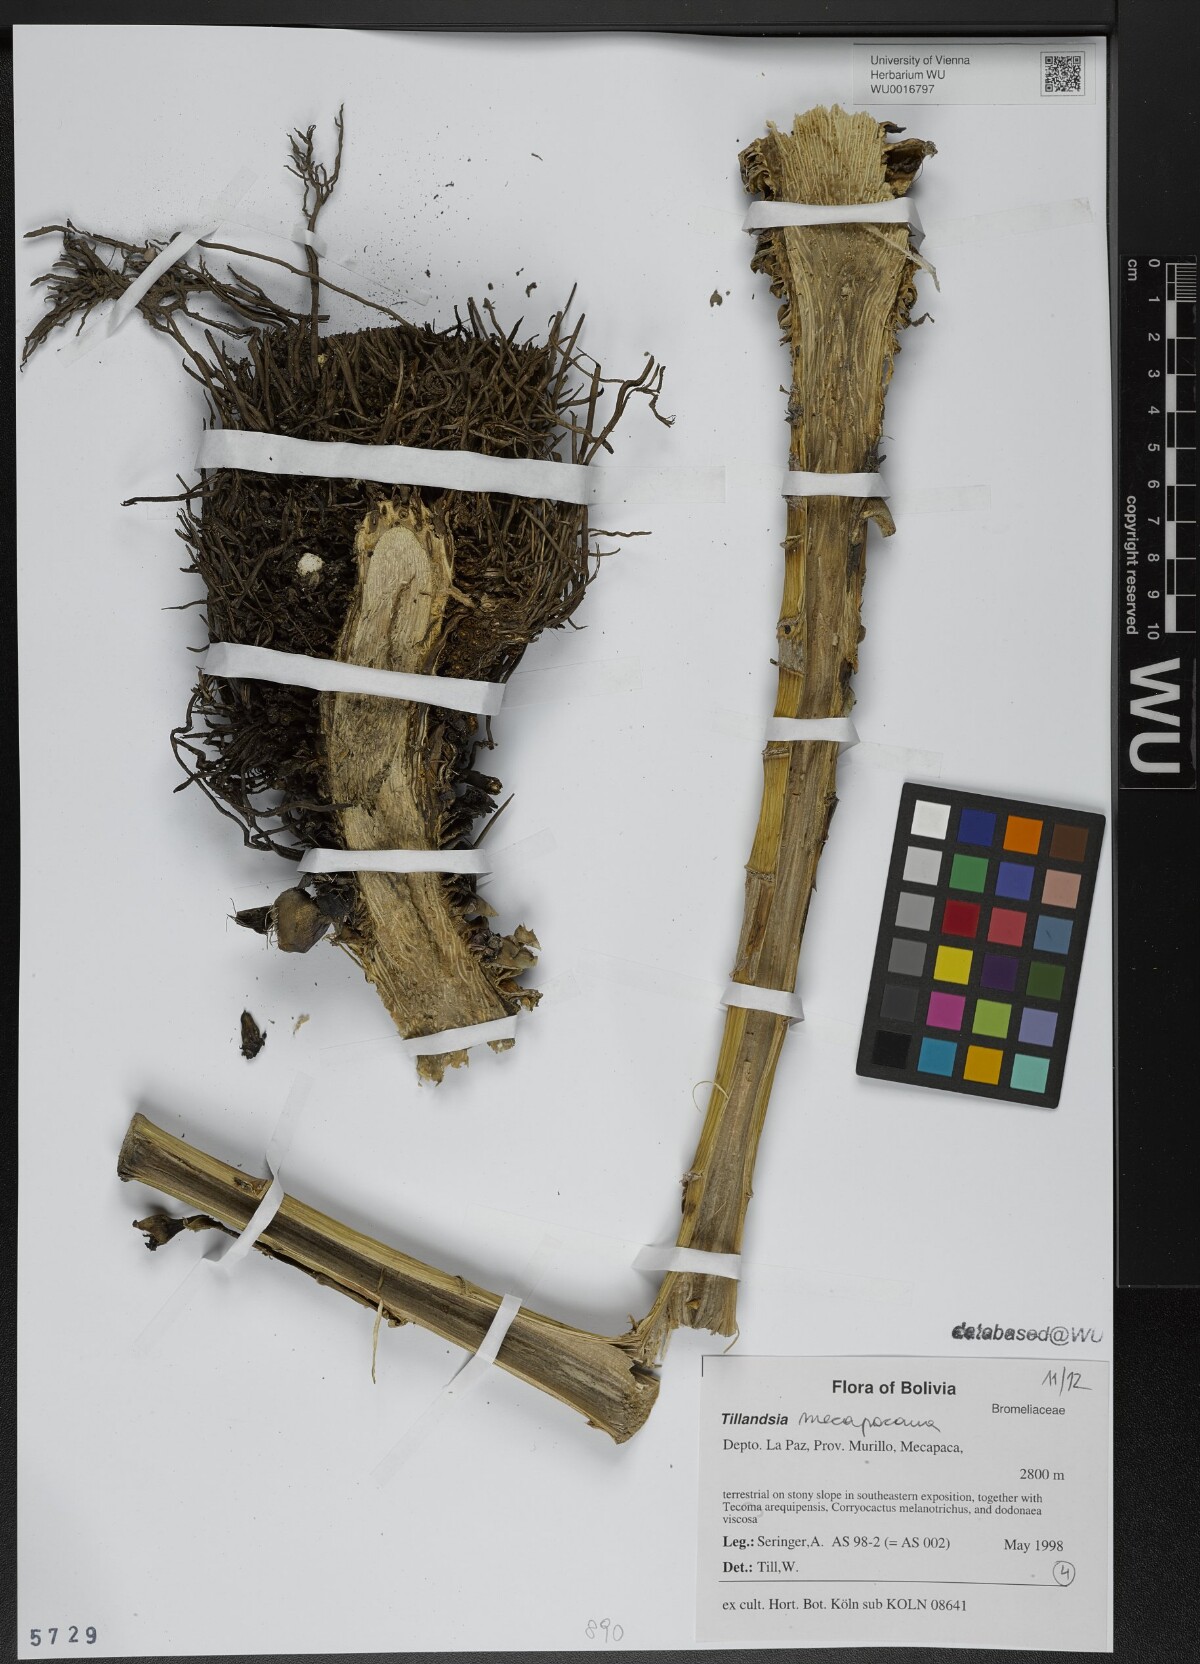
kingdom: Plantae
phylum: Tracheophyta
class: Liliopsida
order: Poales
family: Bromeliaceae
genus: Tillandsia
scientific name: Tillandsia
